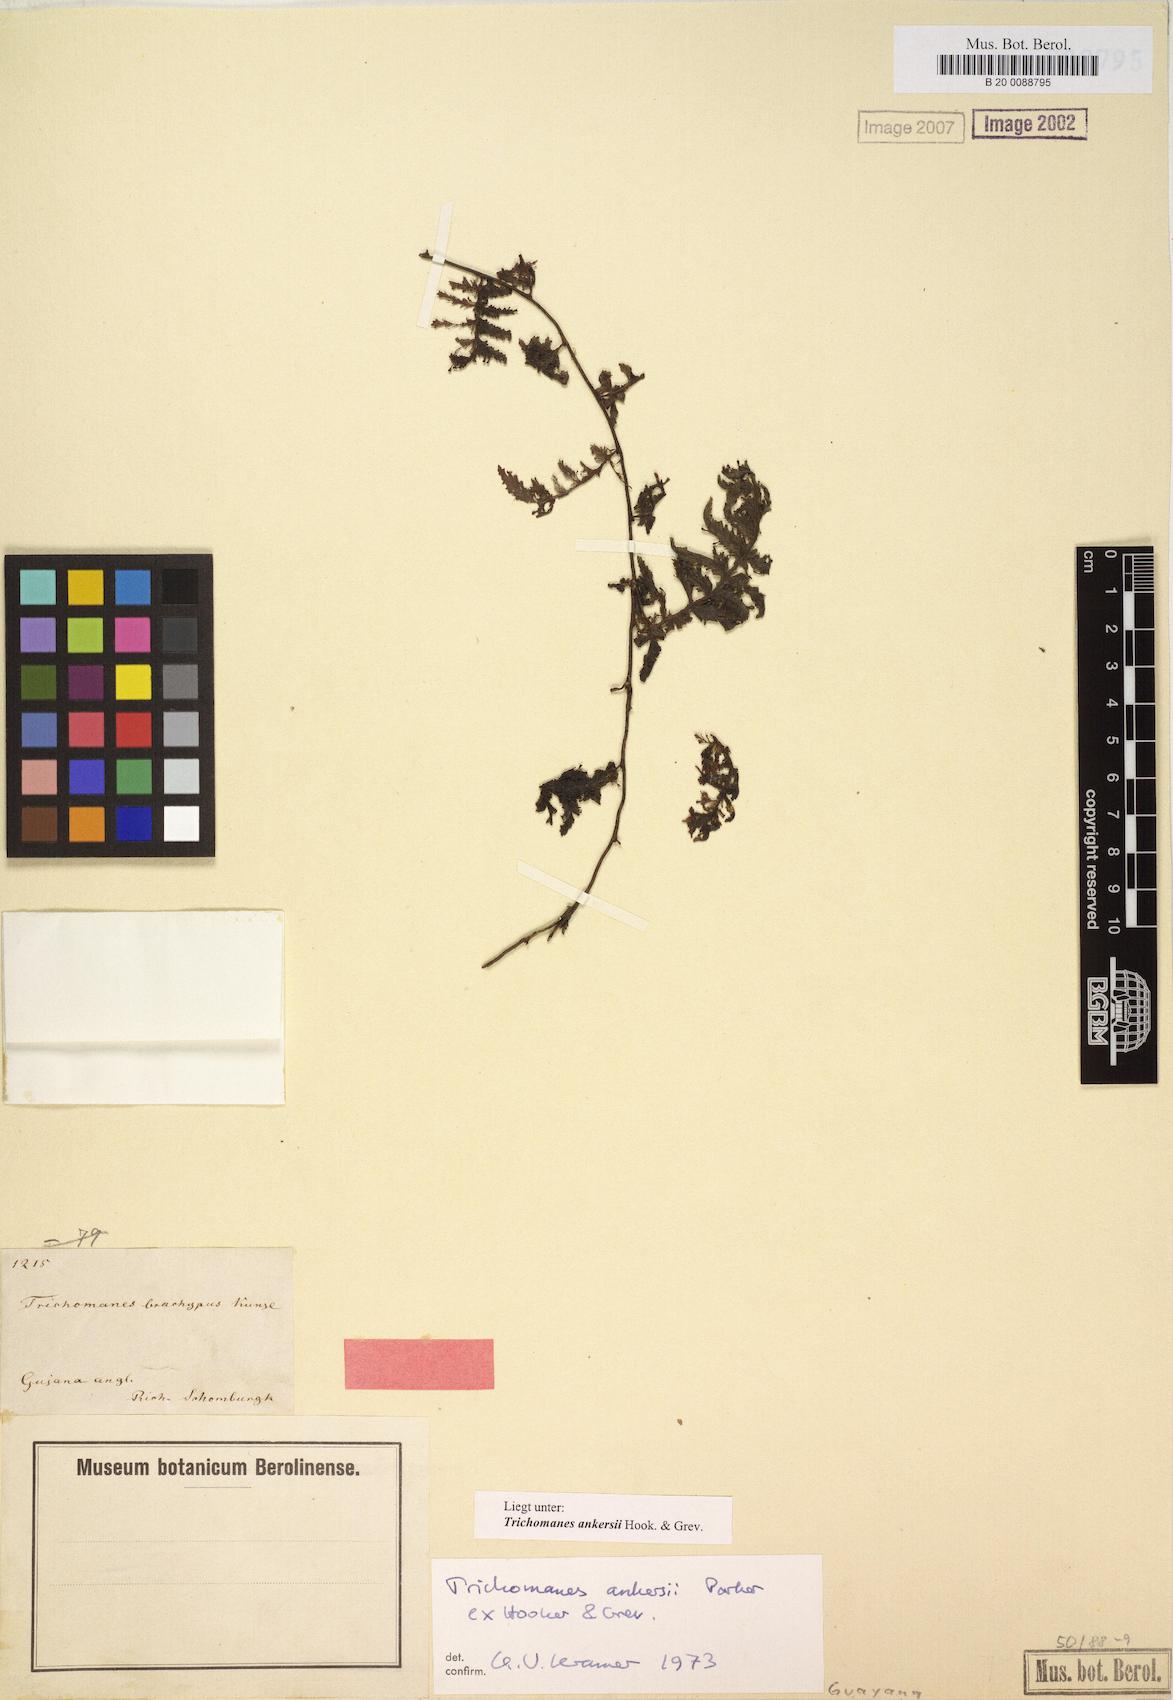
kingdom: Plantae
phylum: Tracheophyta
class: Polypodiopsida
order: Hymenophyllales
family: Hymenophyllaceae
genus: Trichomanes
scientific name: Trichomanes ankersii
